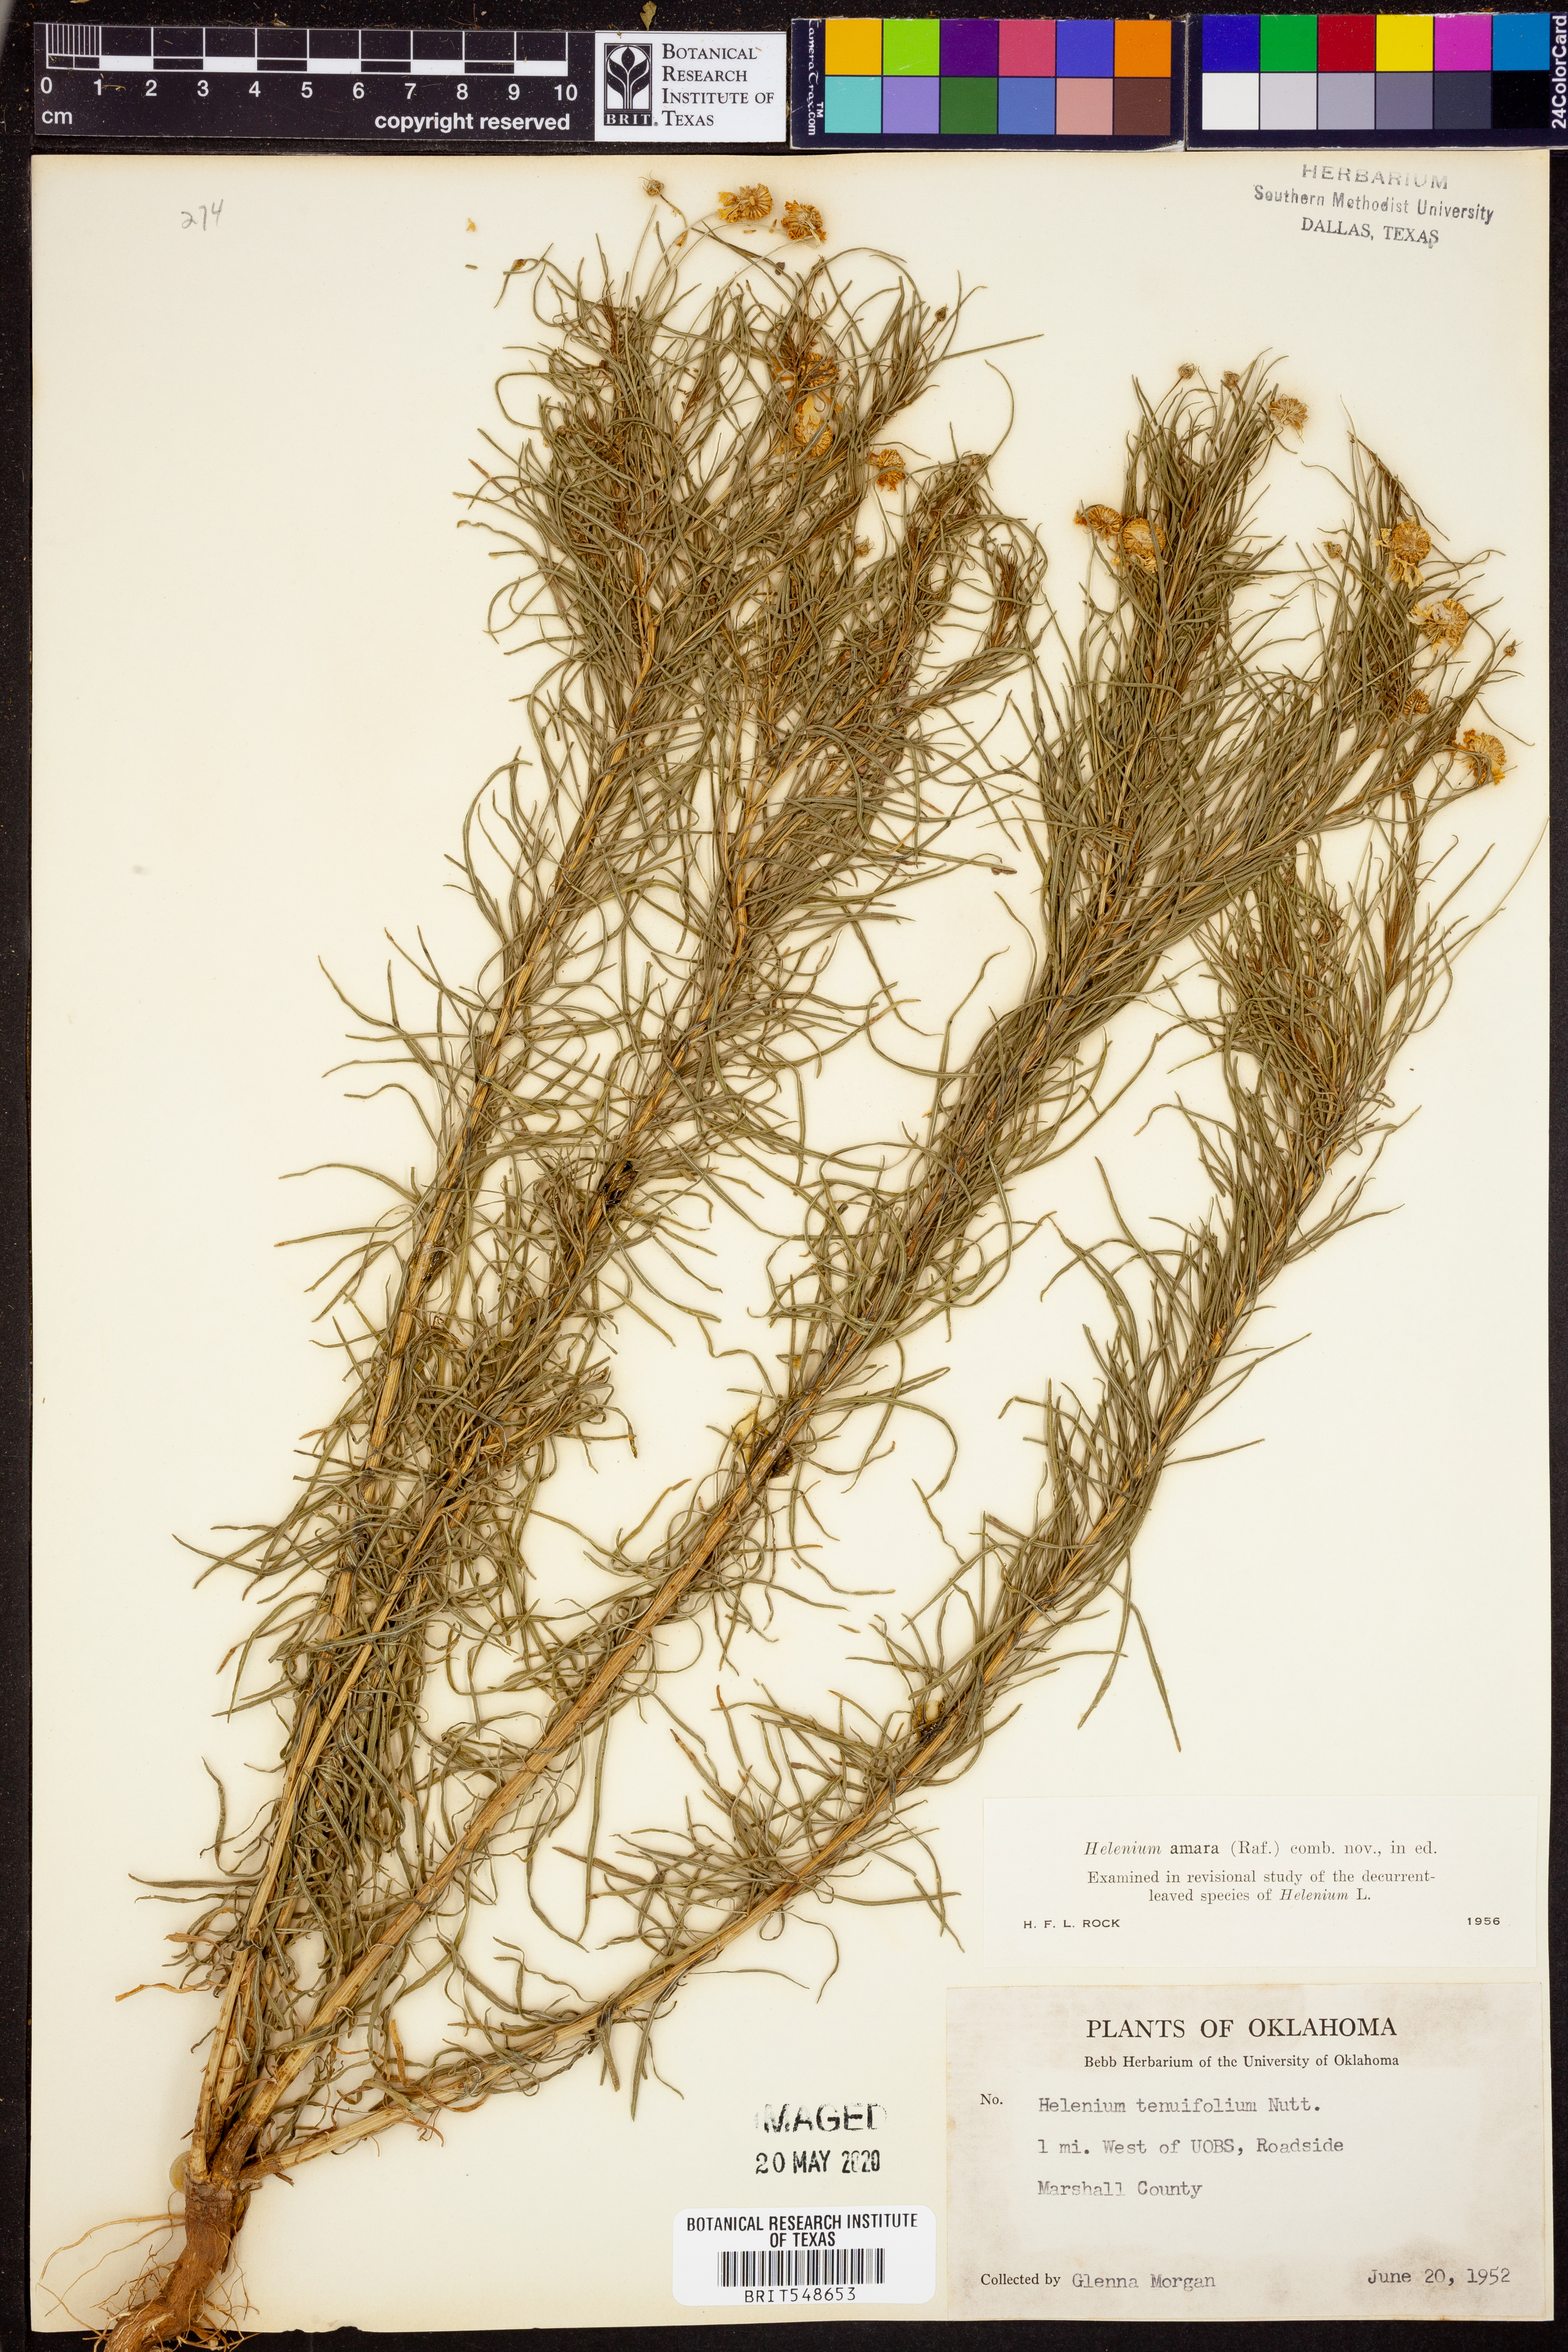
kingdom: Plantae
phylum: Tracheophyta
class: Magnoliopsida
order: Asterales
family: Asteraceae
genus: Helenium
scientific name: Helenium amarum
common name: Bitter sneezeweed
